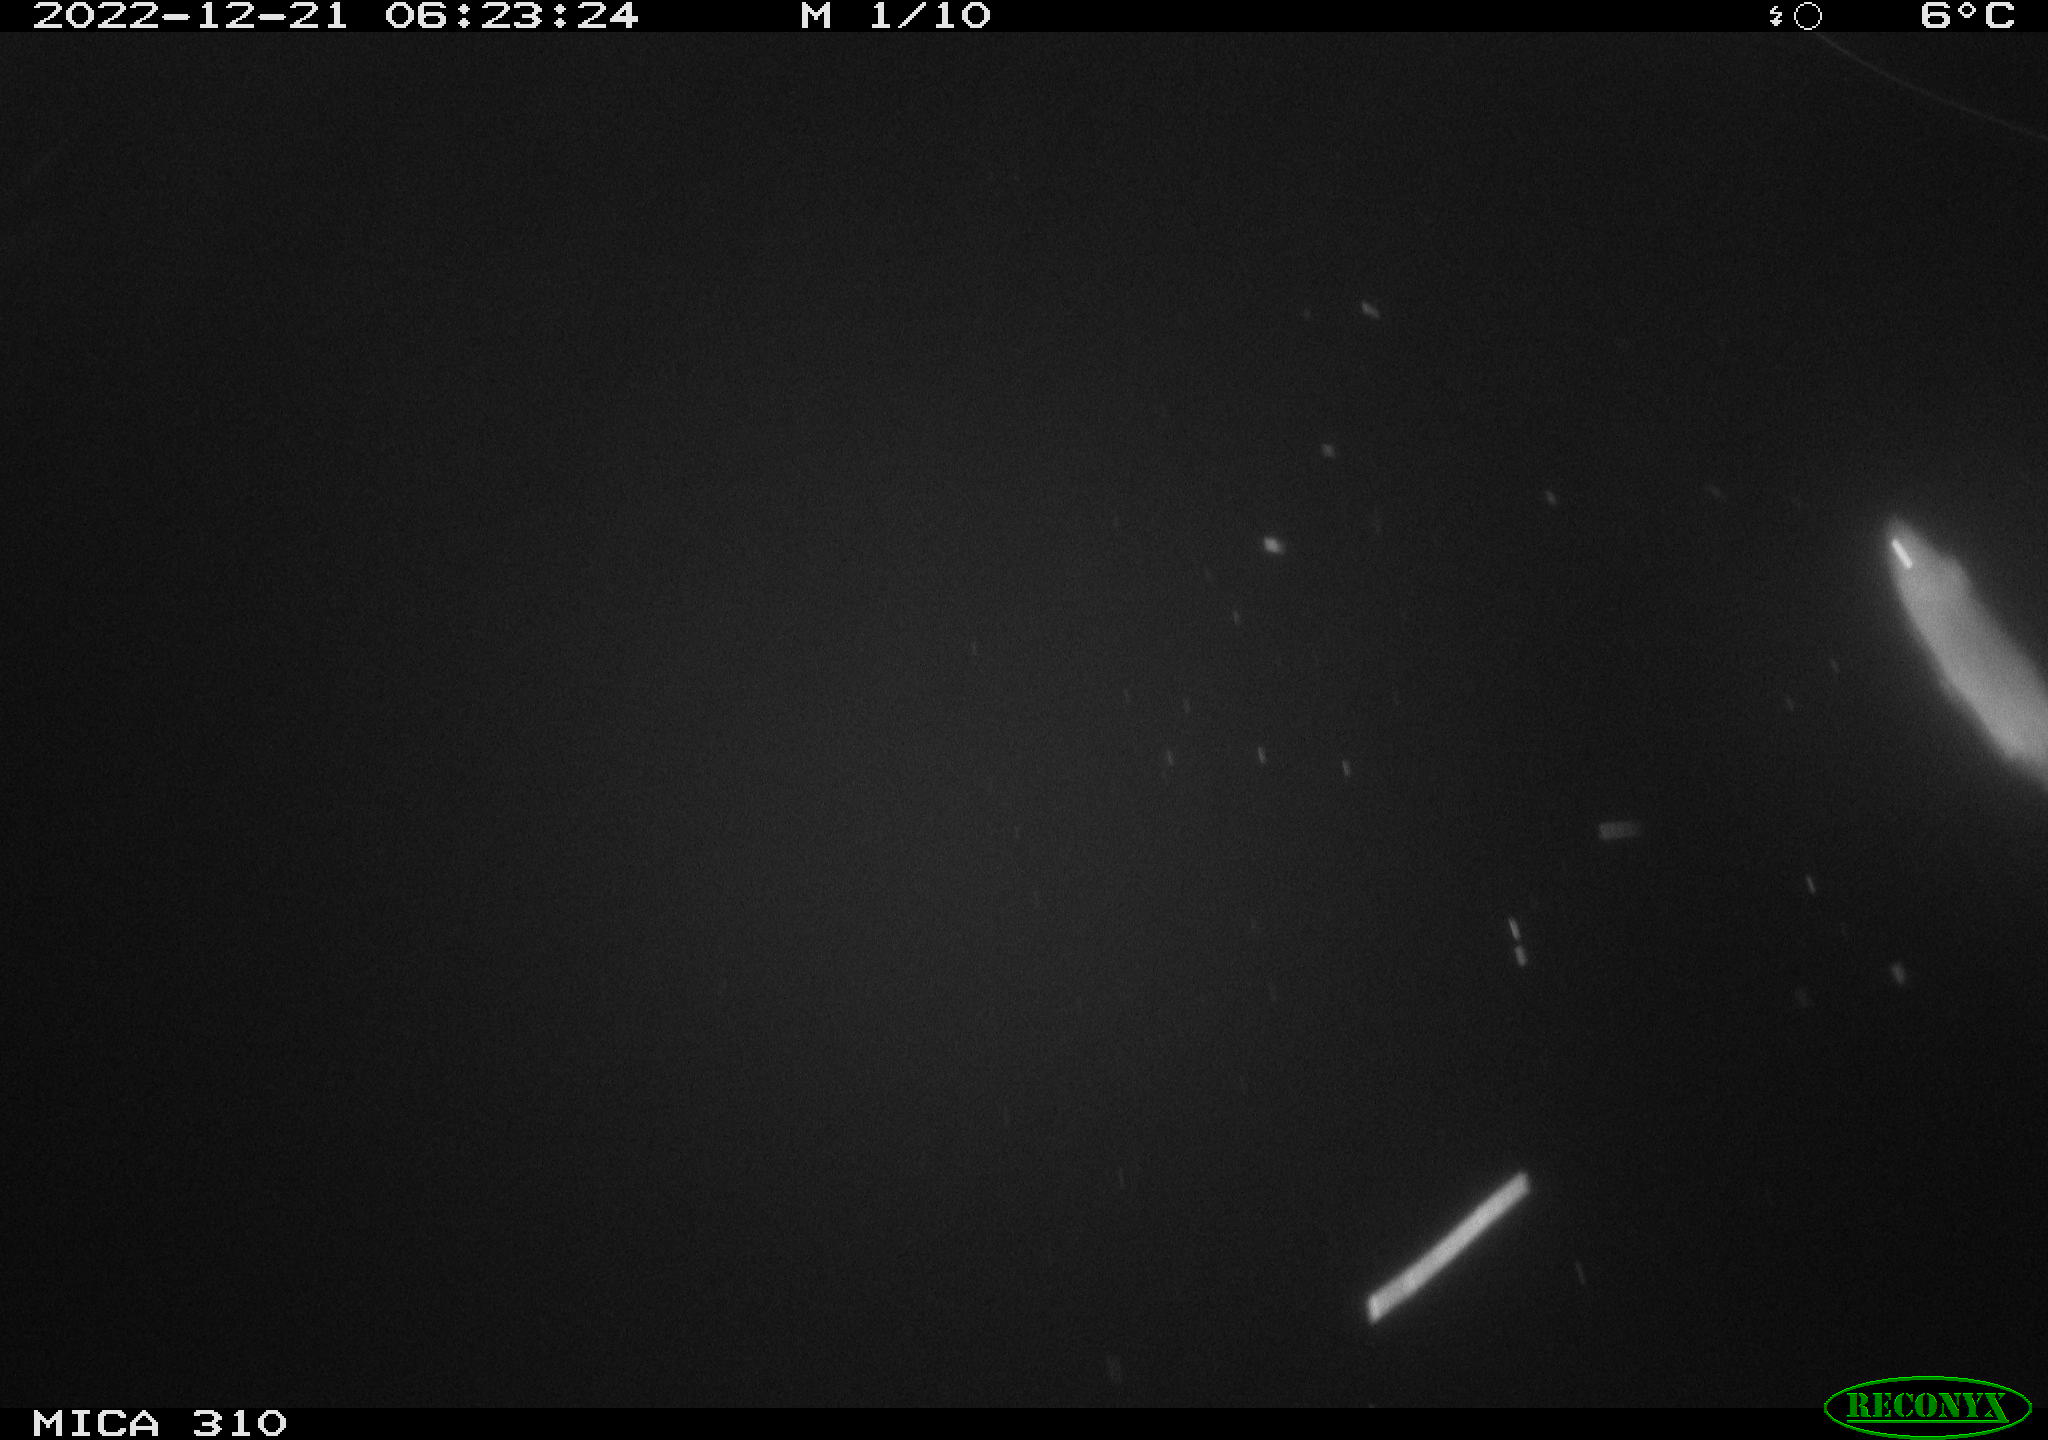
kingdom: Animalia
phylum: Chordata
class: Mammalia
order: Rodentia
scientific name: Rodentia
